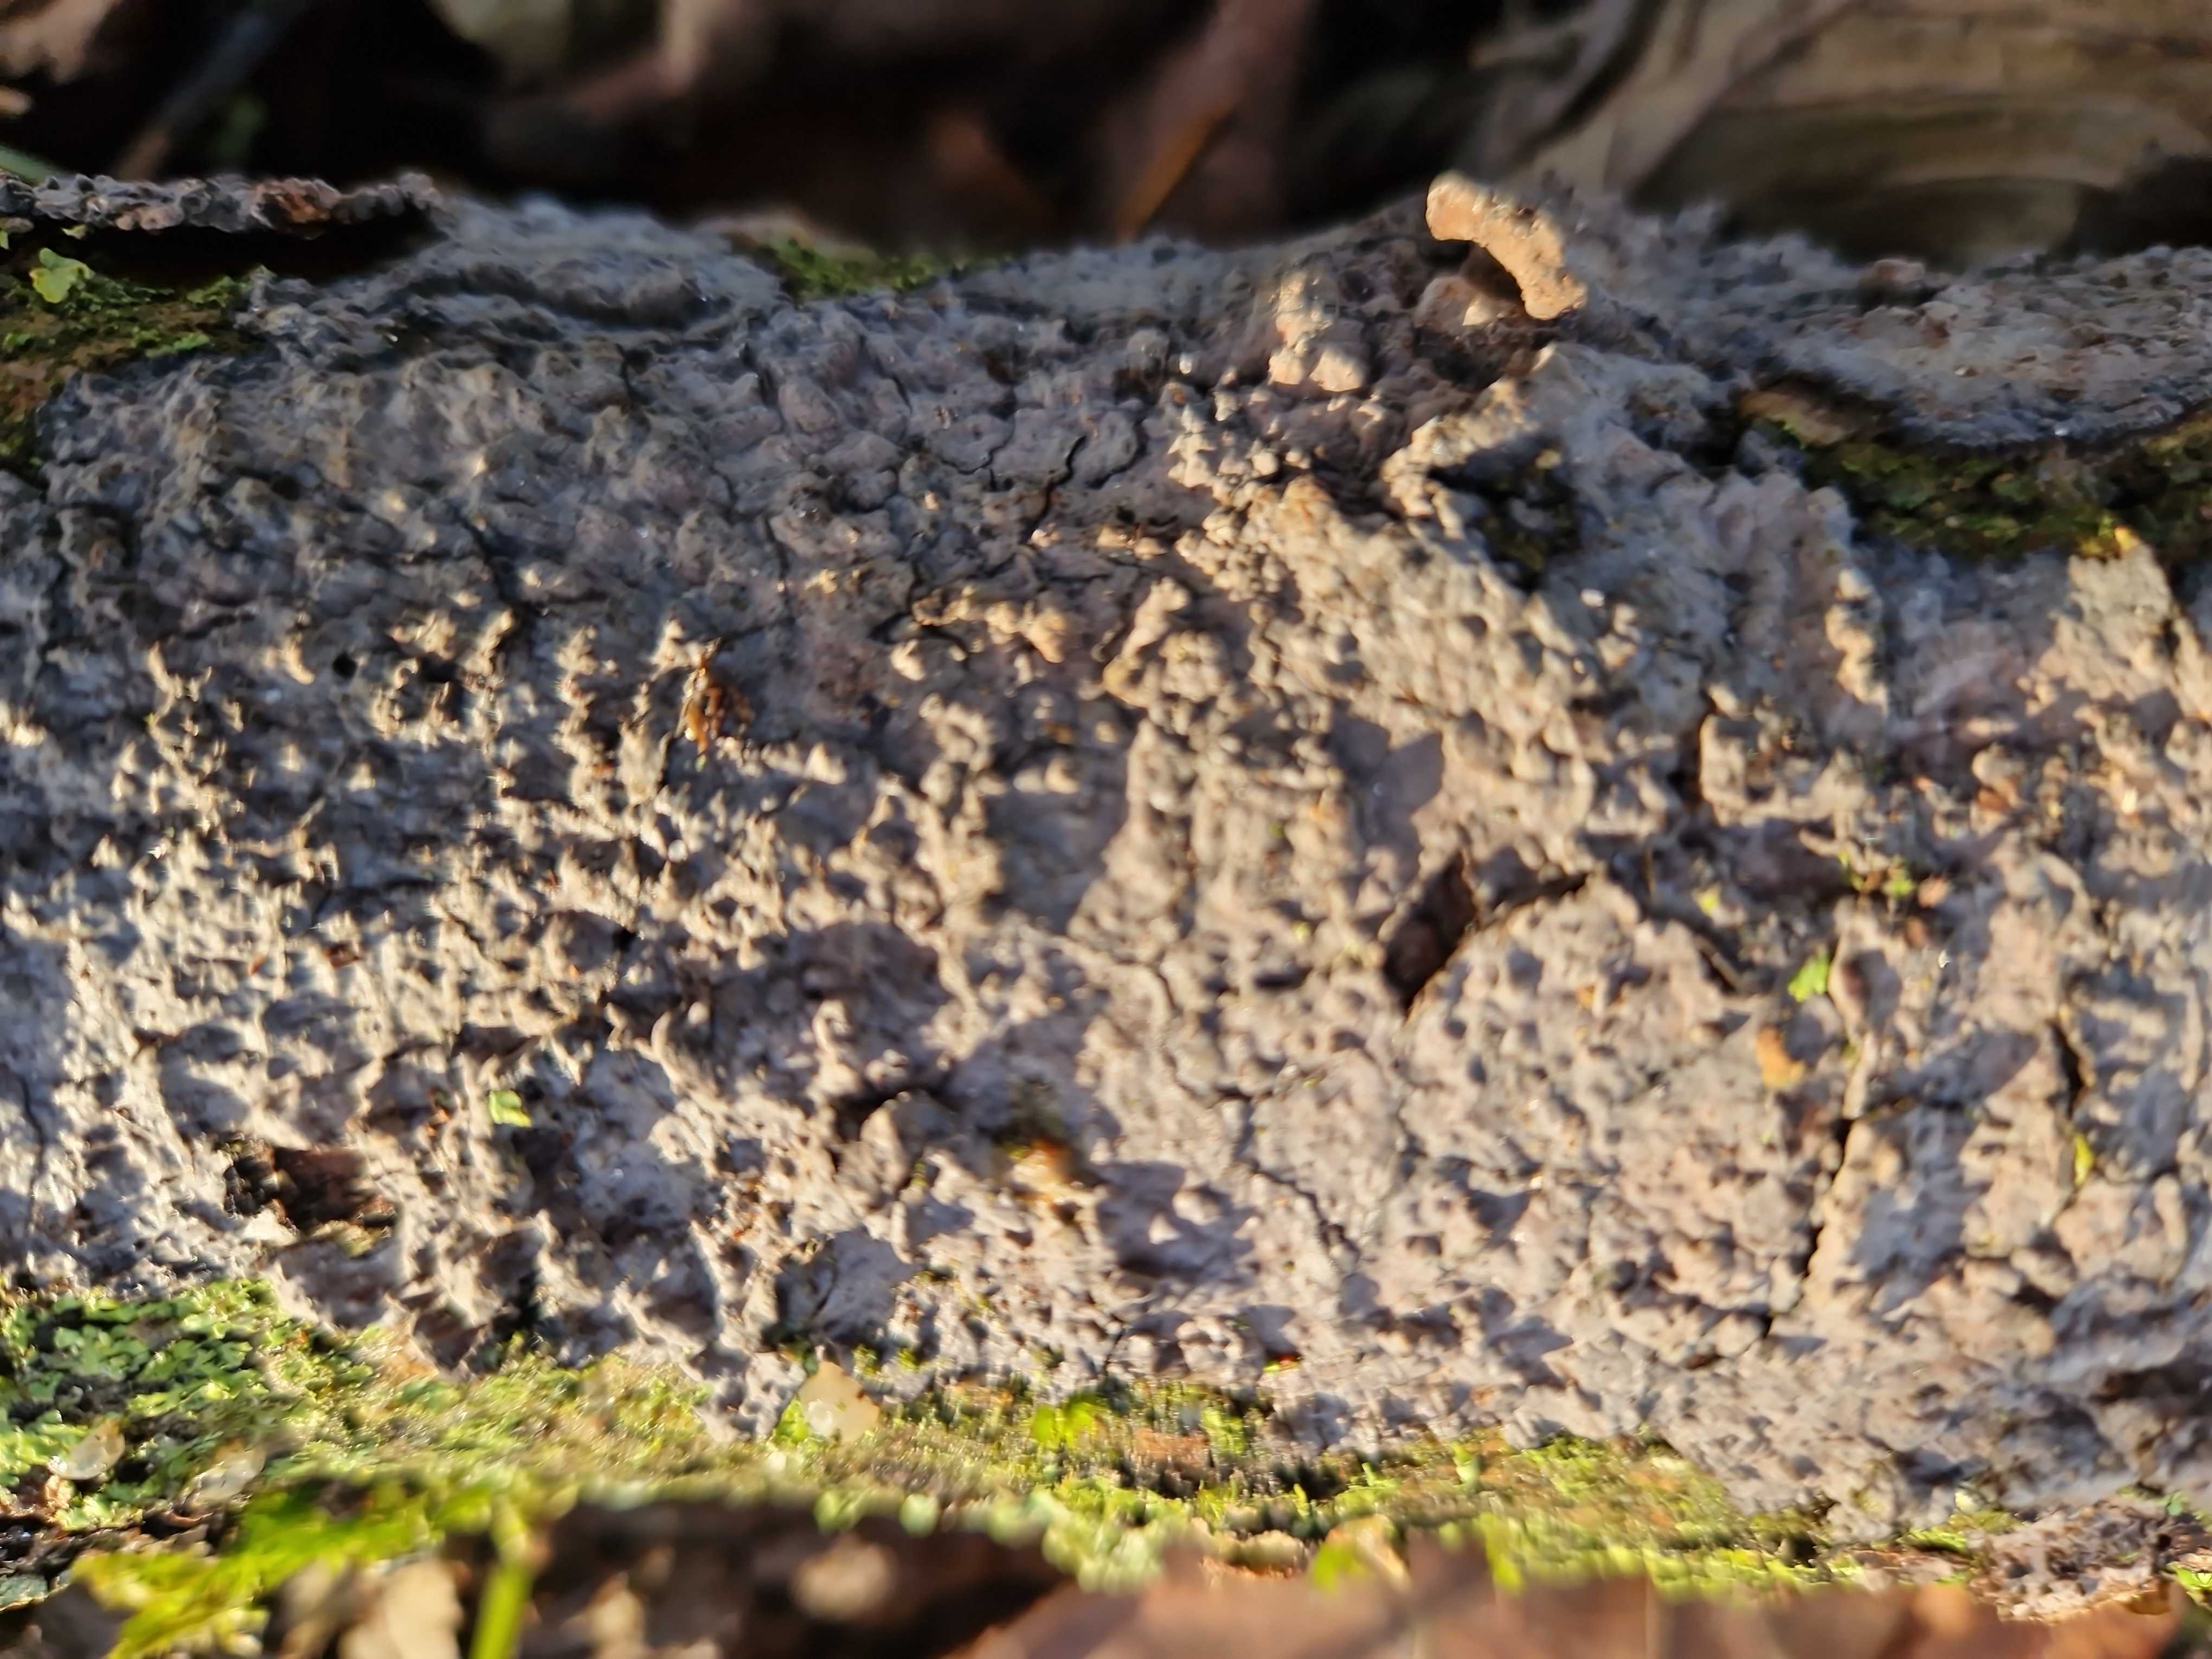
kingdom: Fungi
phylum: Basidiomycota
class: Agaricomycetes
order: Russulales
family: Peniophoraceae
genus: Peniophora
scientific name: Peniophora limitata
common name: mørkrandet voksskind
